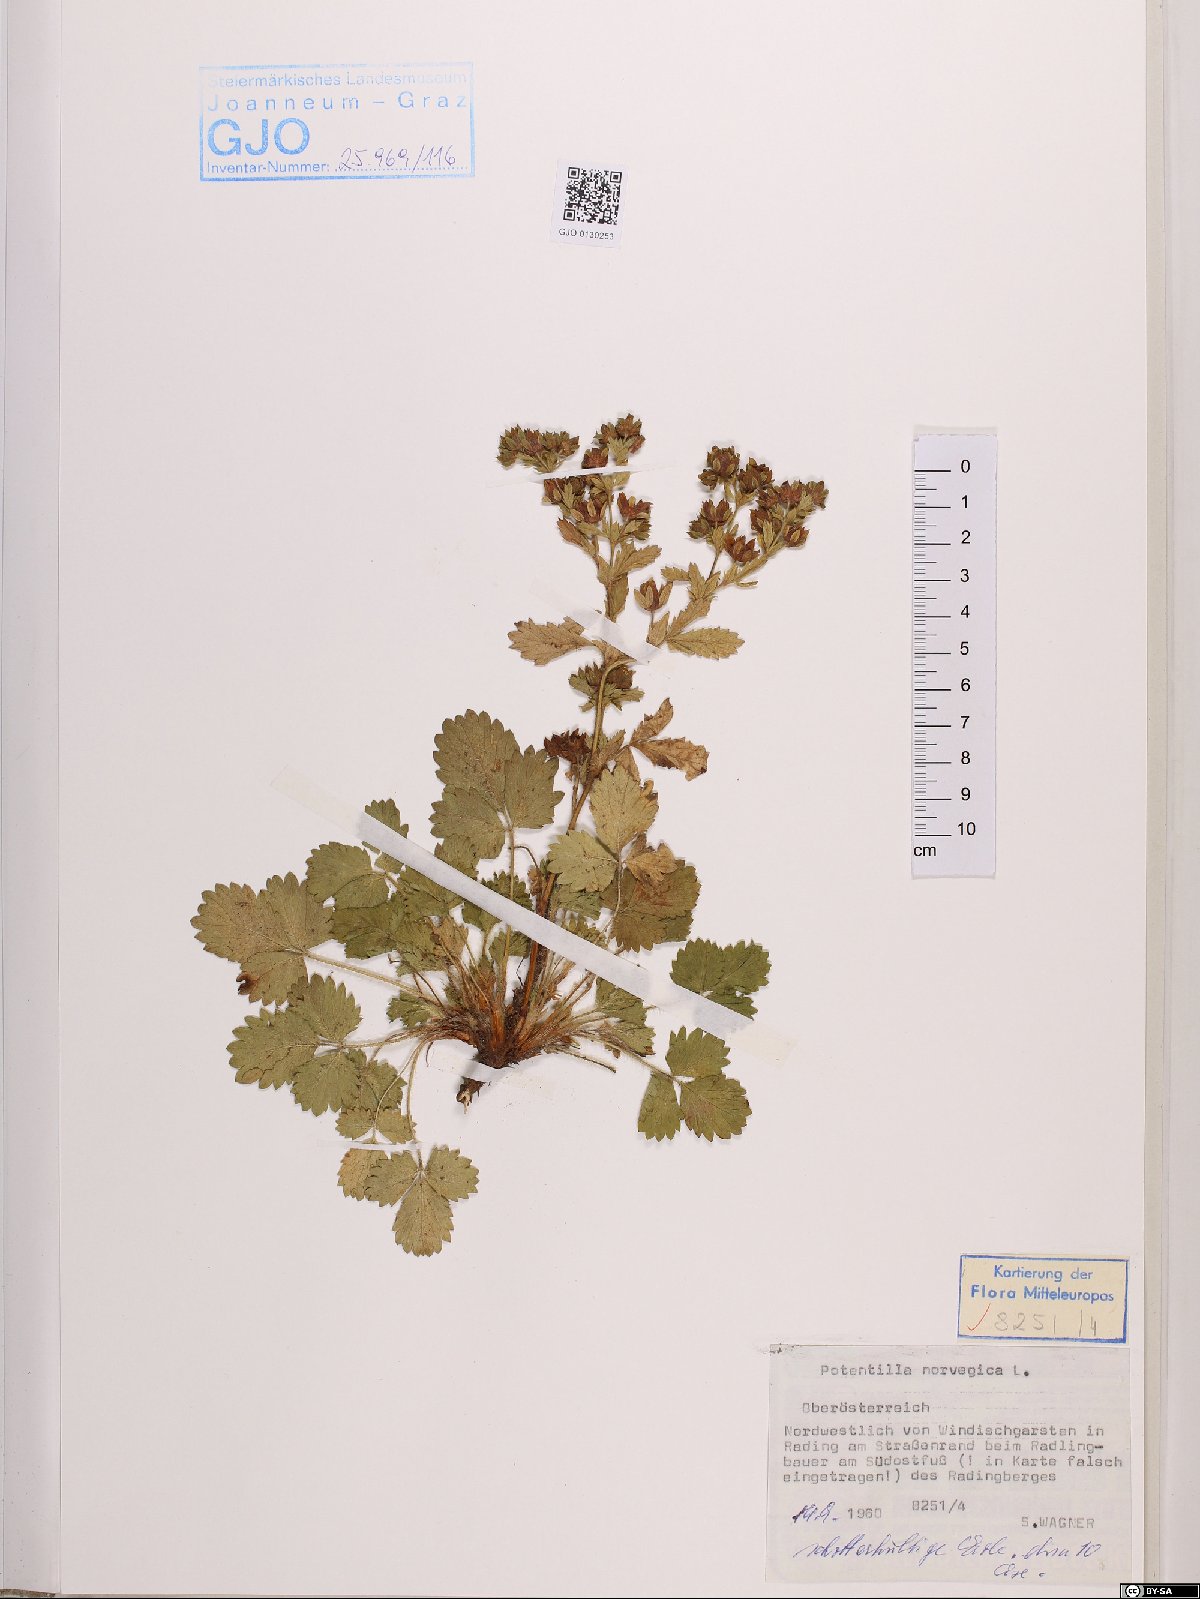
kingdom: Plantae
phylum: Tracheophyta
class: Magnoliopsida
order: Rosales
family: Rosaceae
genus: Potentilla
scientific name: Potentilla norvegica
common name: Ternate-leaved cinquefoil
